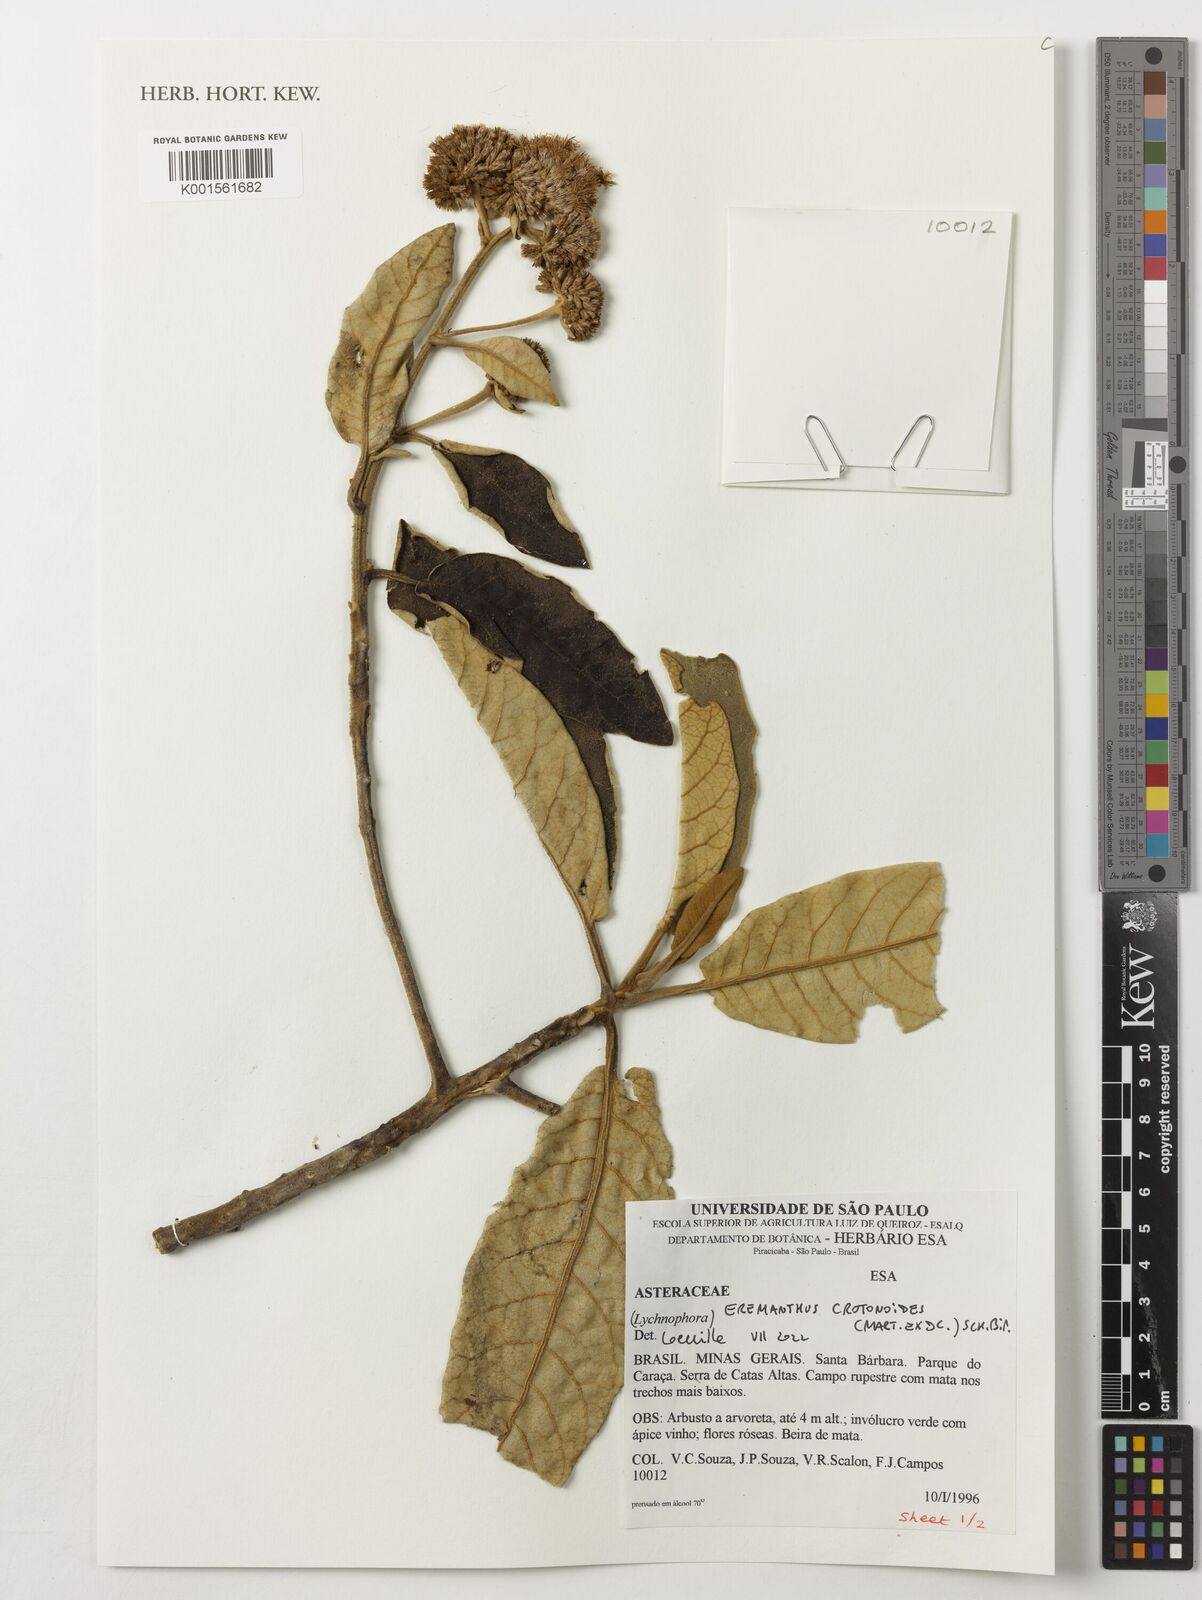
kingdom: Plantae
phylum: Tracheophyta
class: Magnoliopsida
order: Asterales
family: Asteraceae
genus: Eremanthus
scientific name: Eremanthus crotonoides
